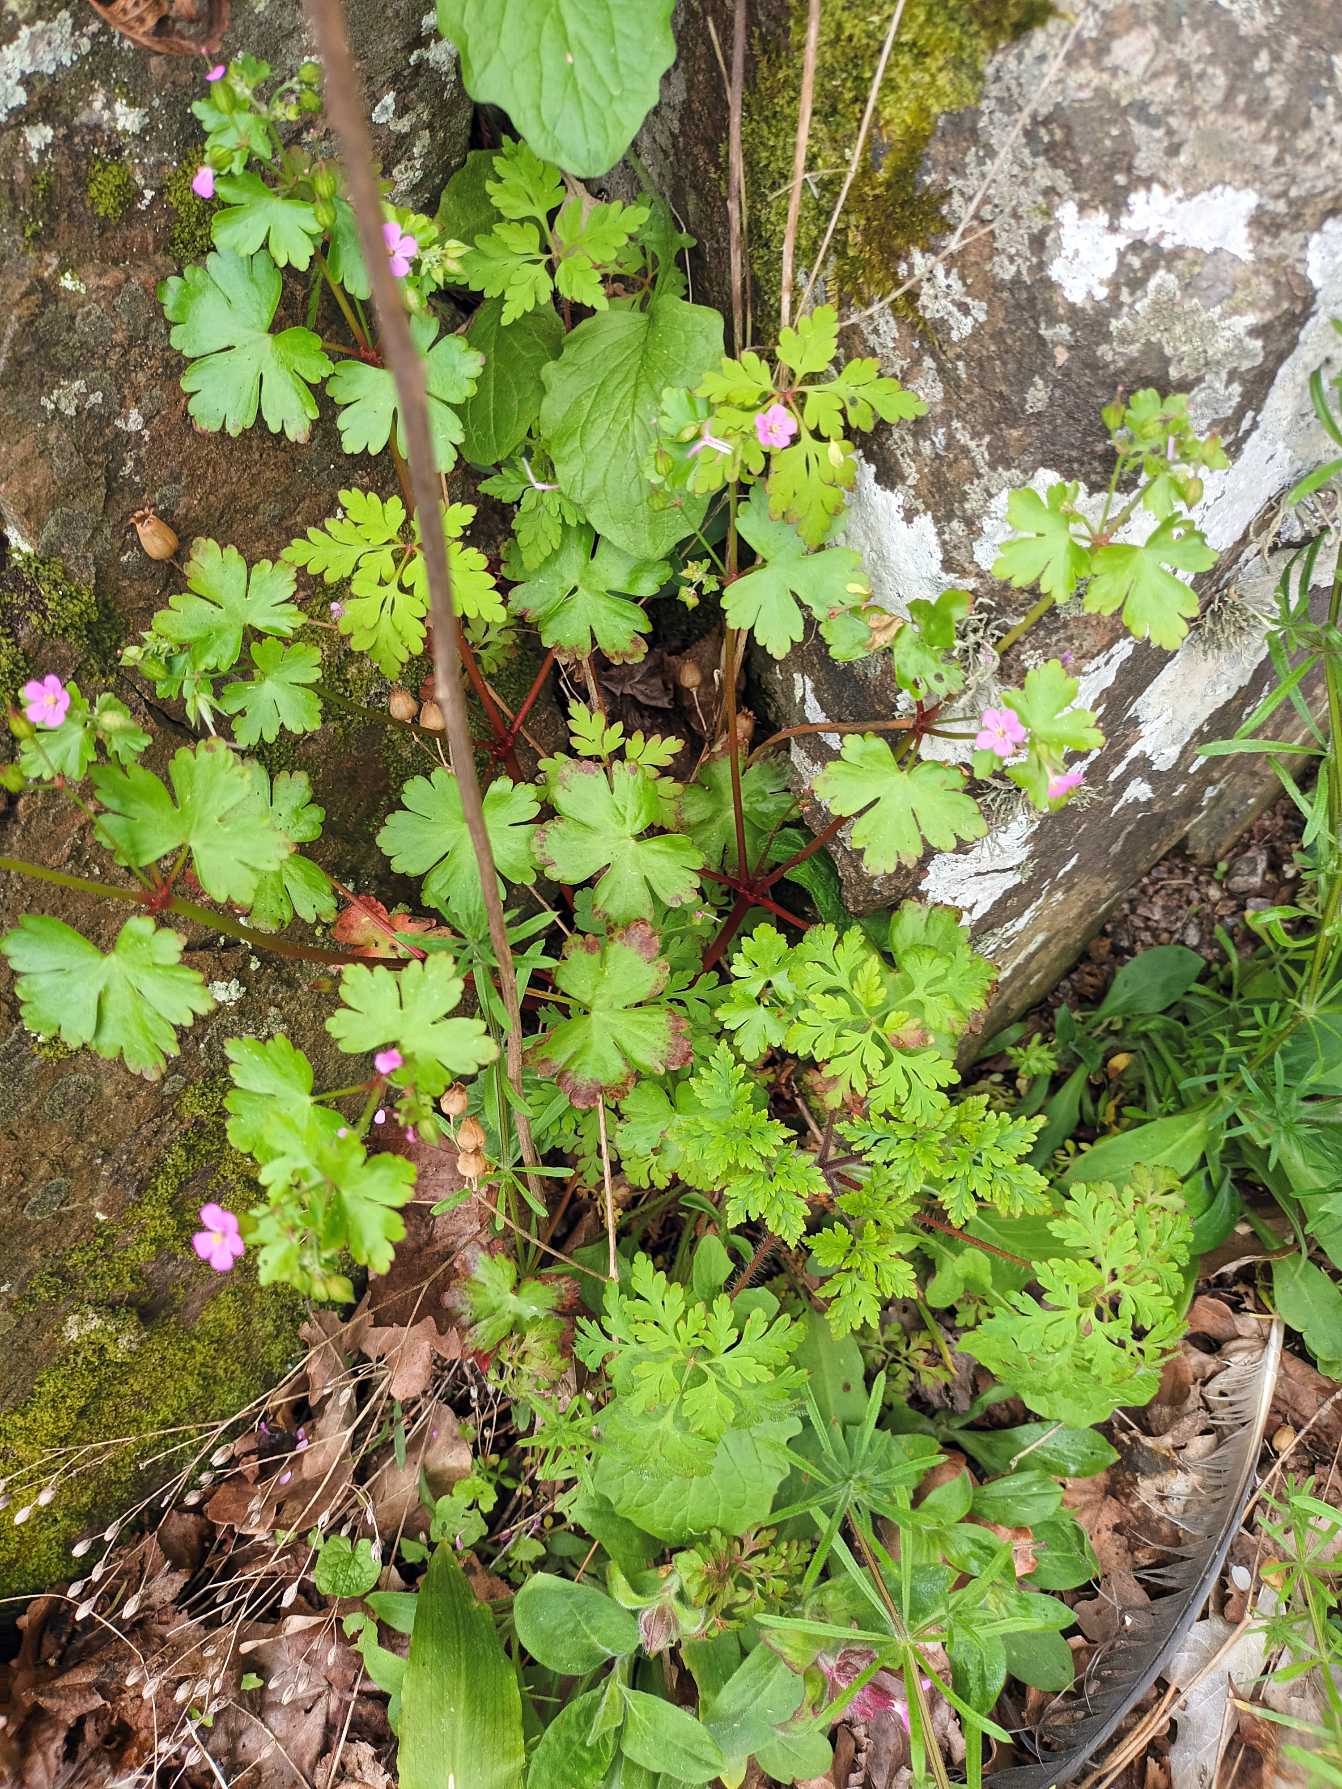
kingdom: Plantae
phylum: Tracheophyta
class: Magnoliopsida
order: Geraniales
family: Geraniaceae
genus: Geranium
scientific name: Geranium lucidum
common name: Skinnende storkenæb
